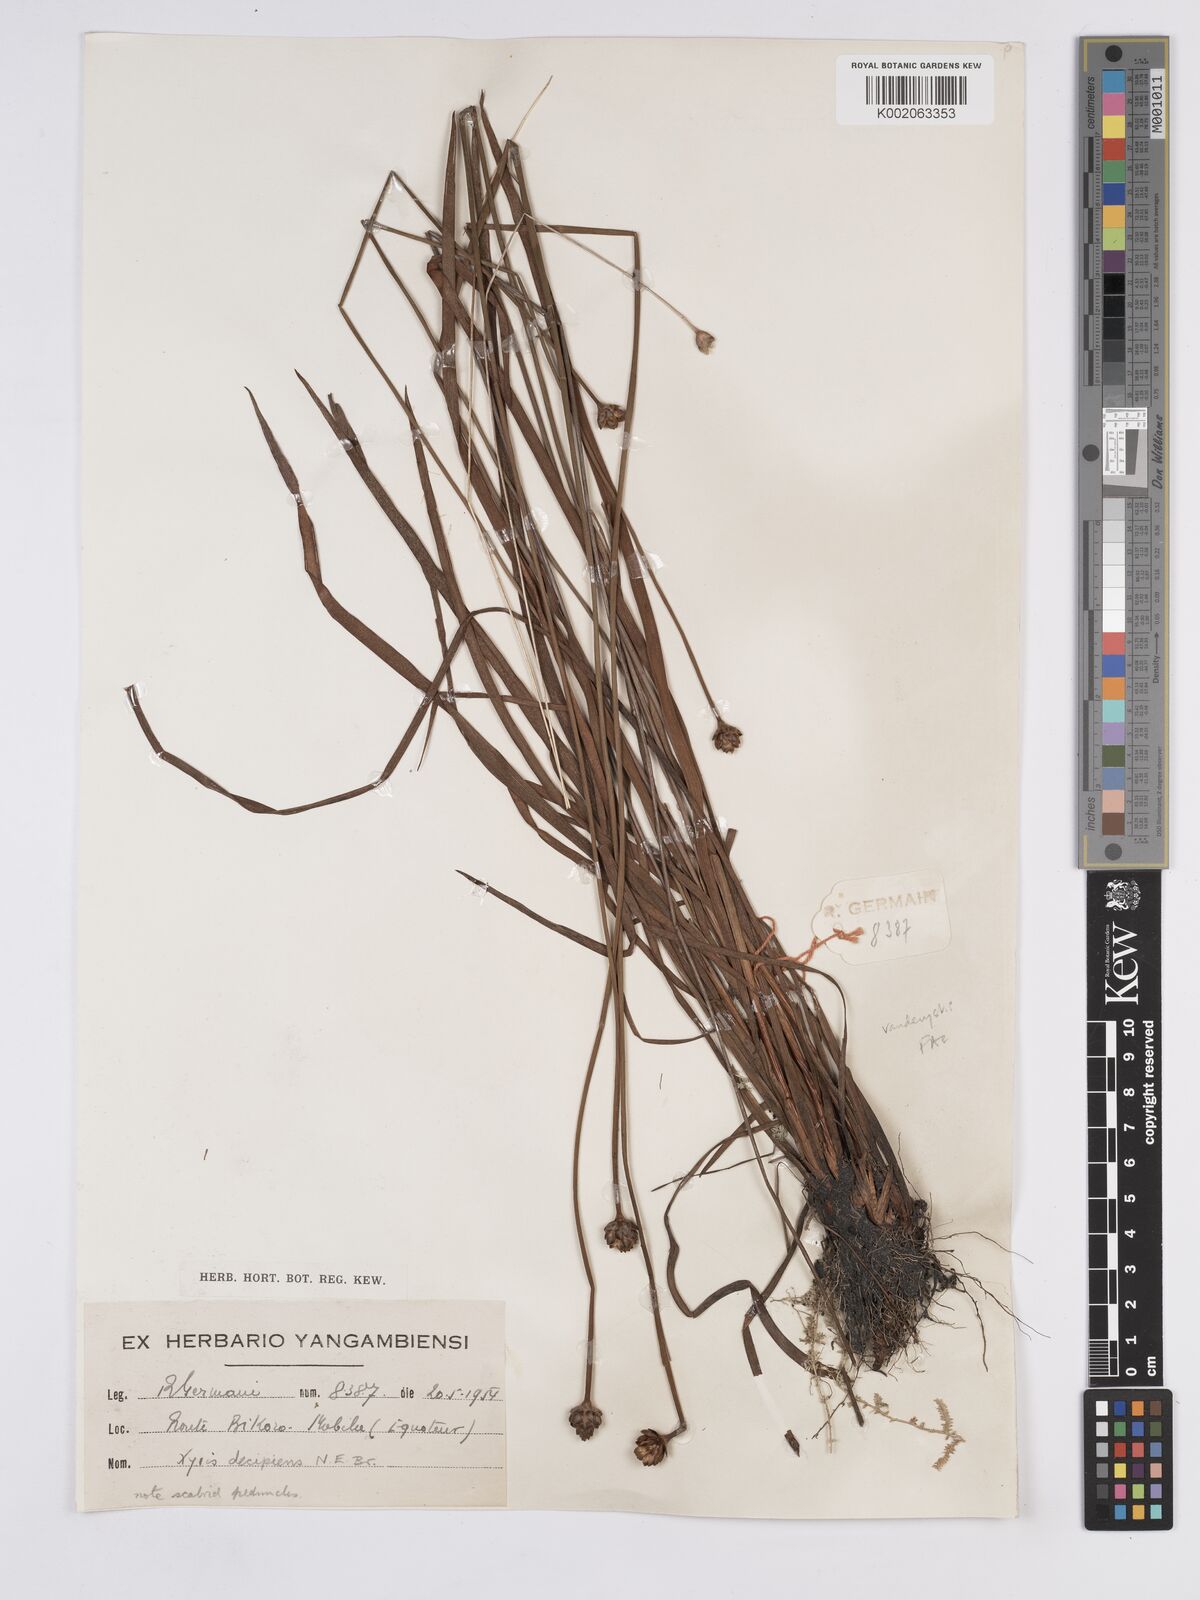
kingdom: Plantae
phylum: Tracheophyta
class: Liliopsida
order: Poales
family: Xyridaceae
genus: Xyris
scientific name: Xyris decipiens
